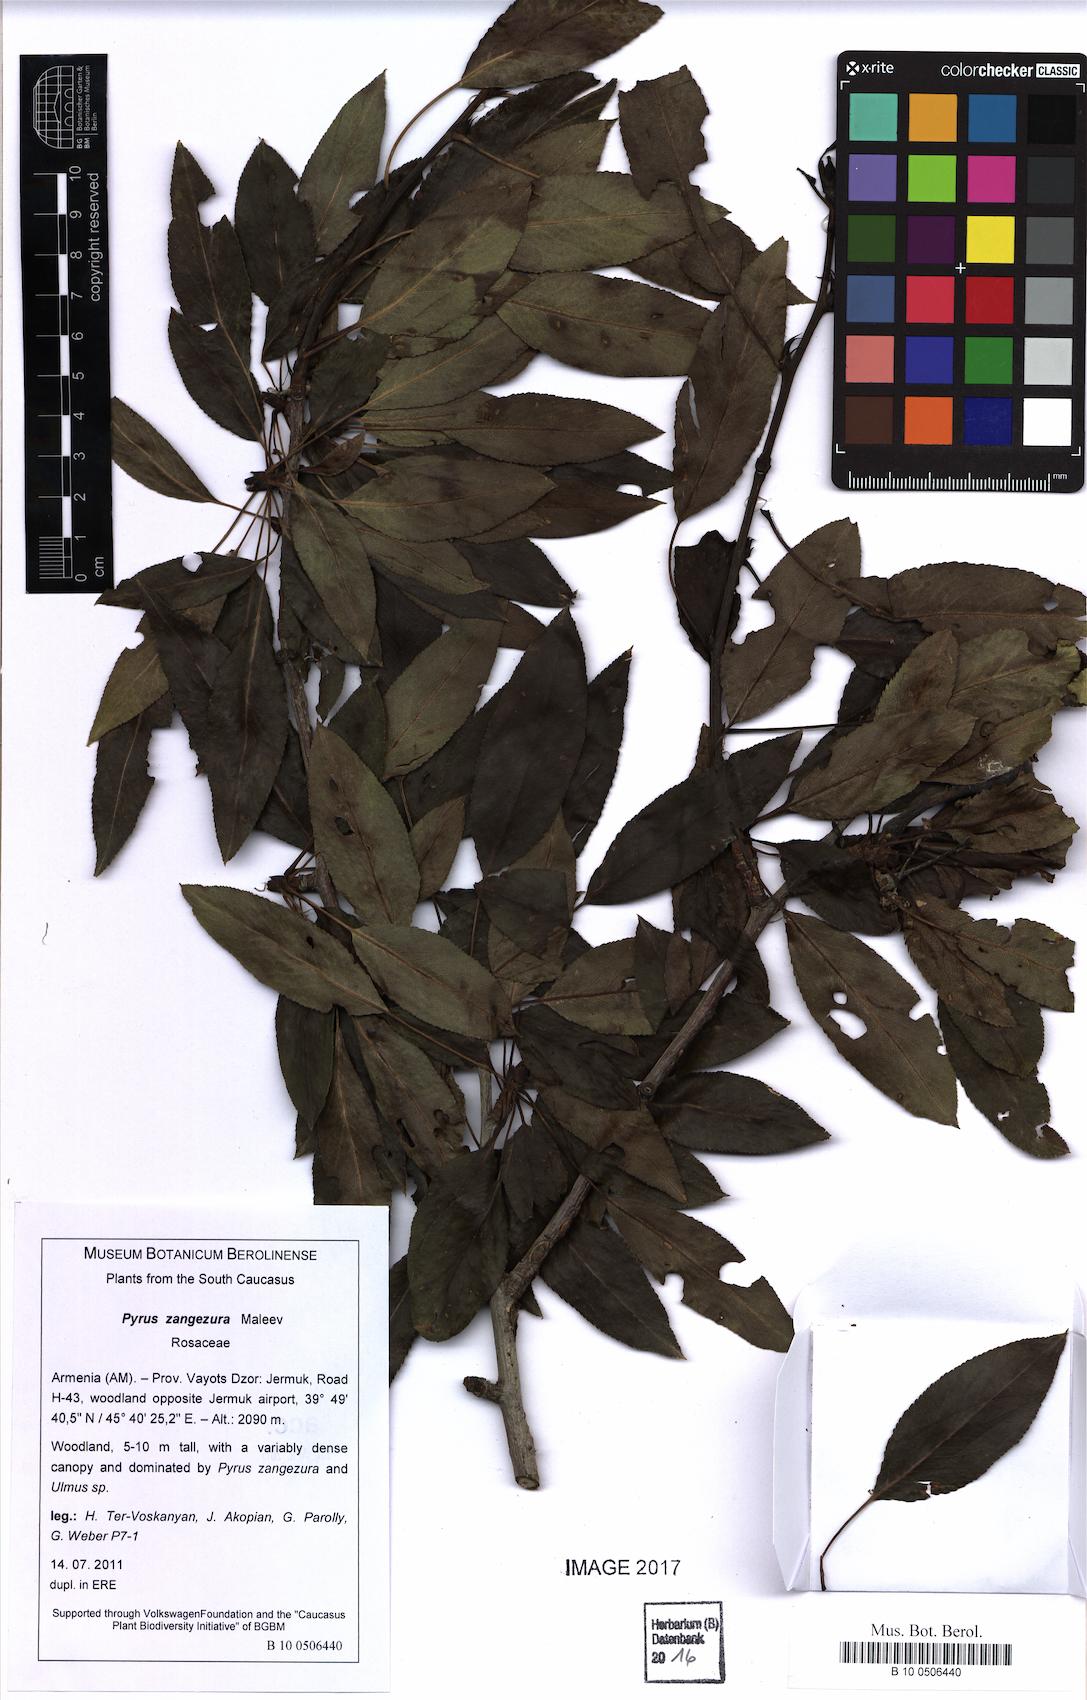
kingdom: Plantae
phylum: Tracheophyta
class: Magnoliopsida
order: Rosales
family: Rosaceae
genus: Pyrus
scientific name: Pyrus zangezura
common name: Zangezurian pear
